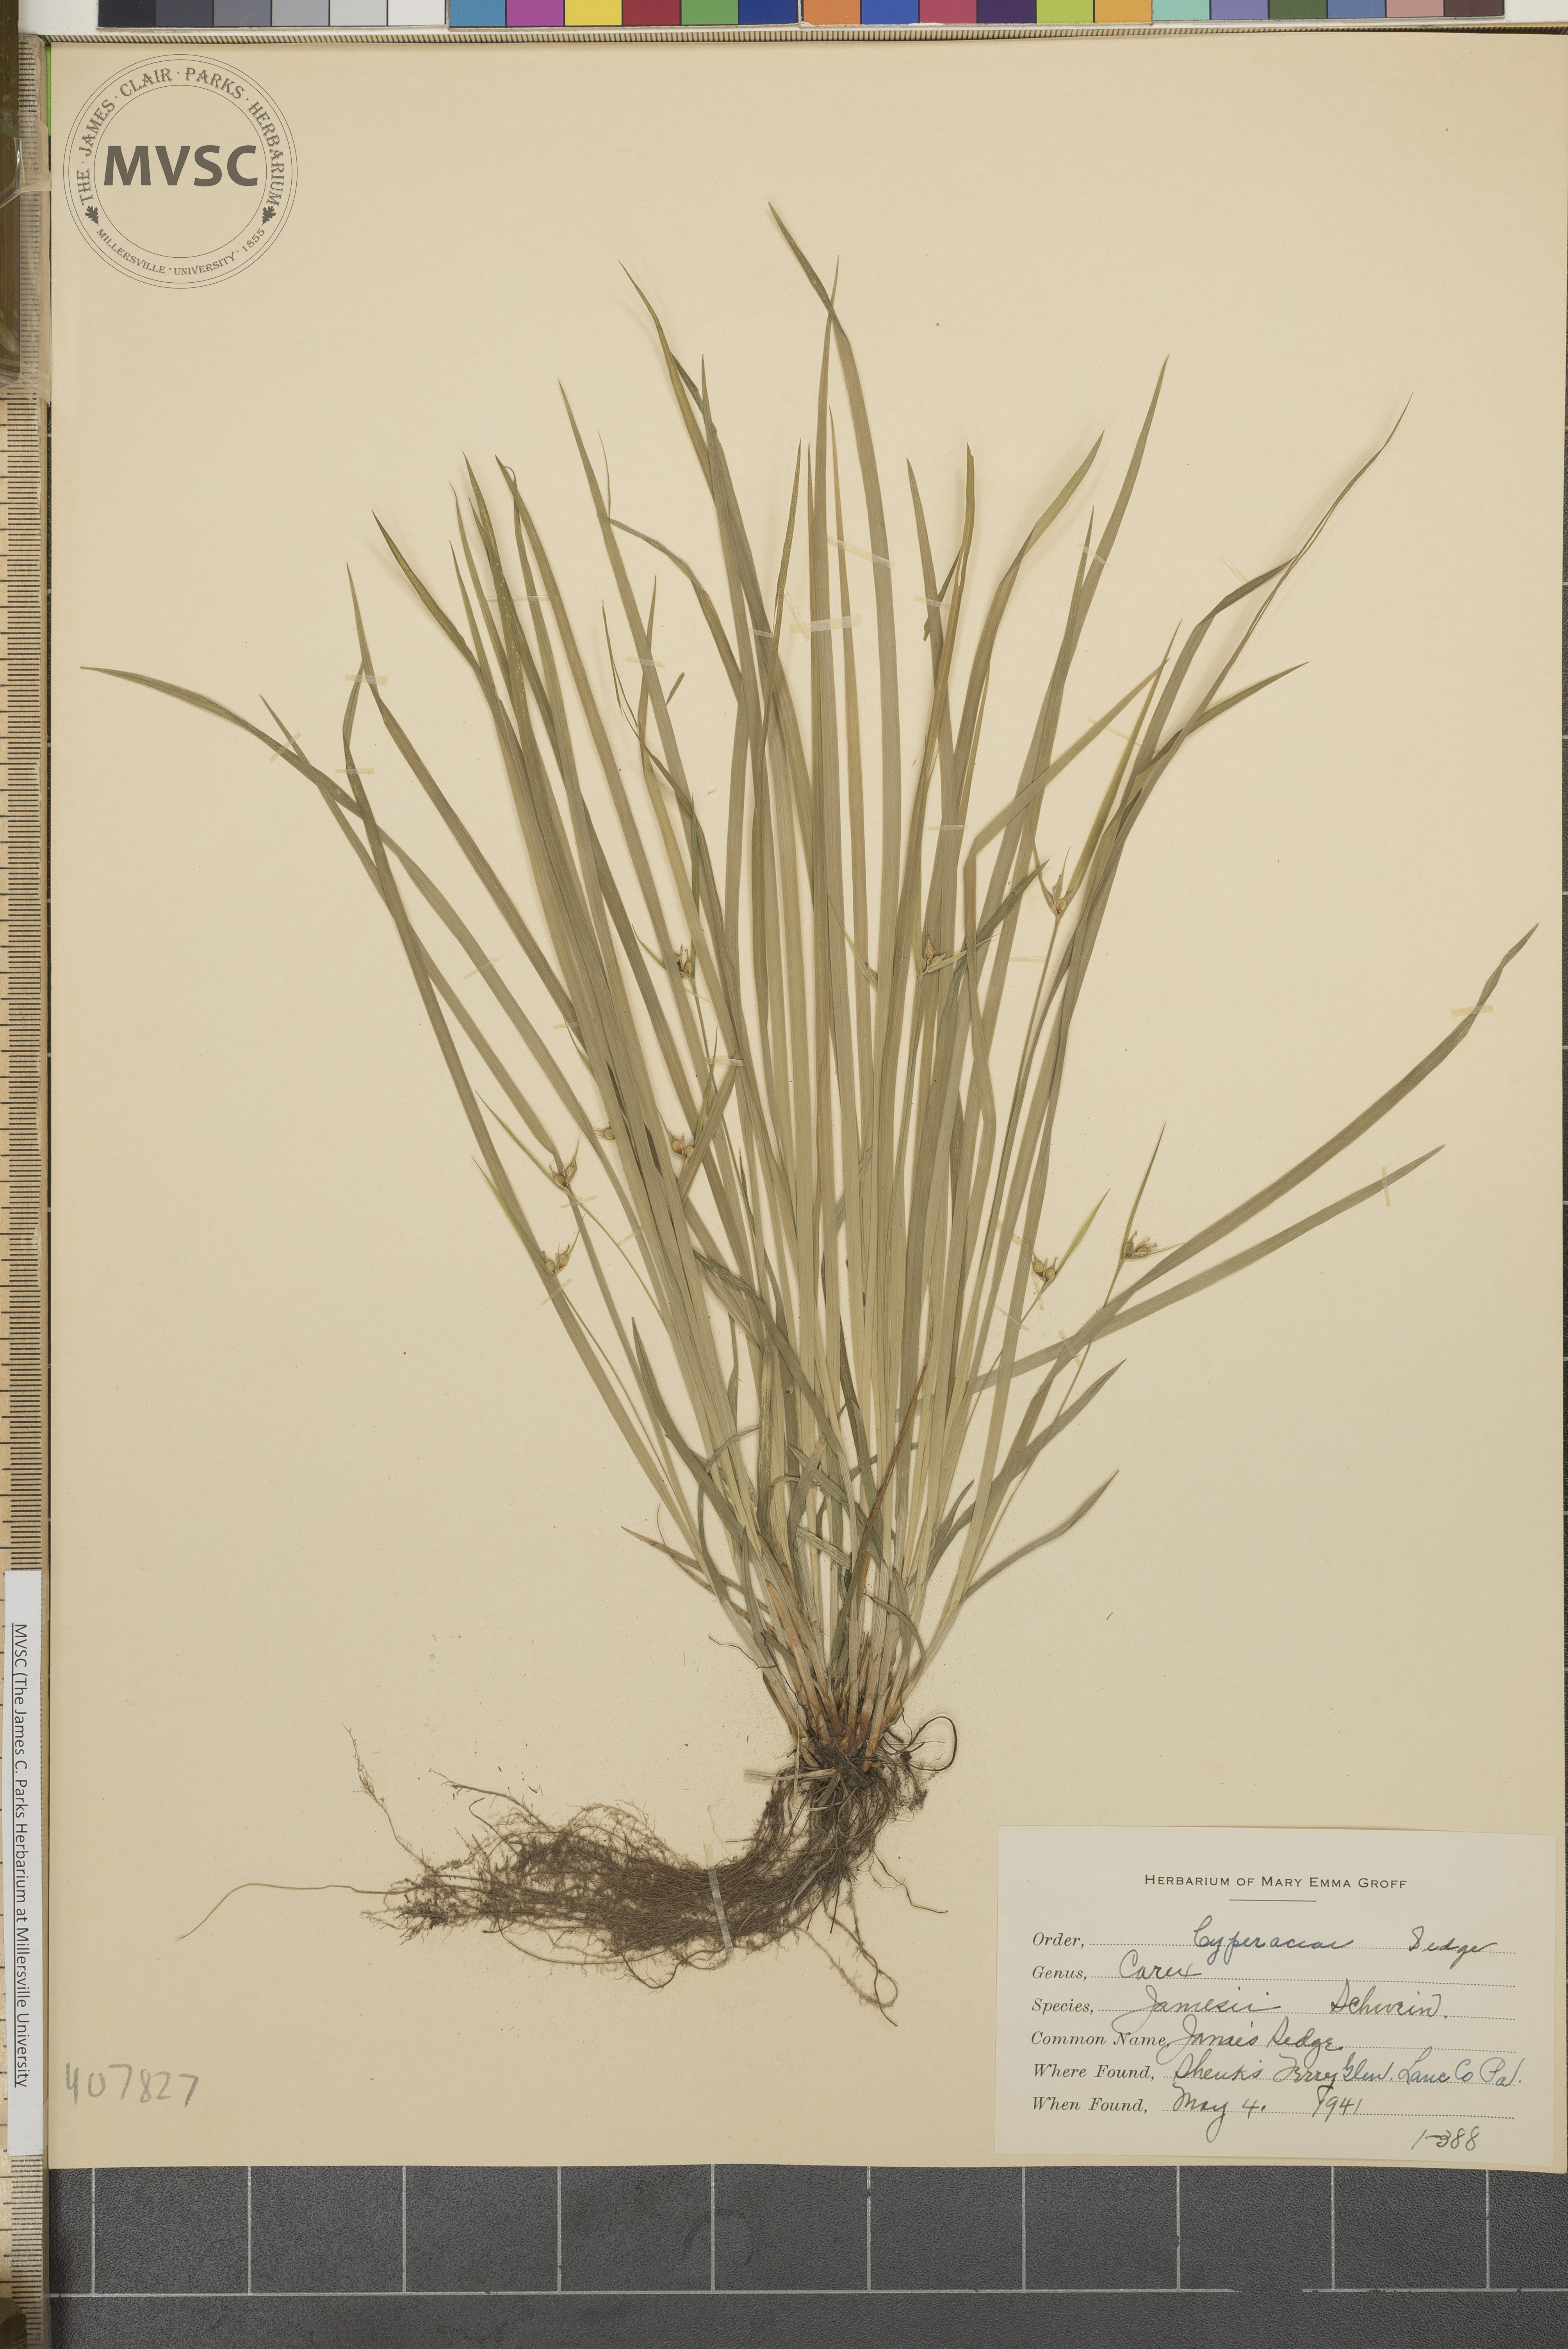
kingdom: Plantae
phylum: Tracheophyta
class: Liliopsida
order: Poales
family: Cyperaceae
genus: Carex
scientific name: Carex jamesii
